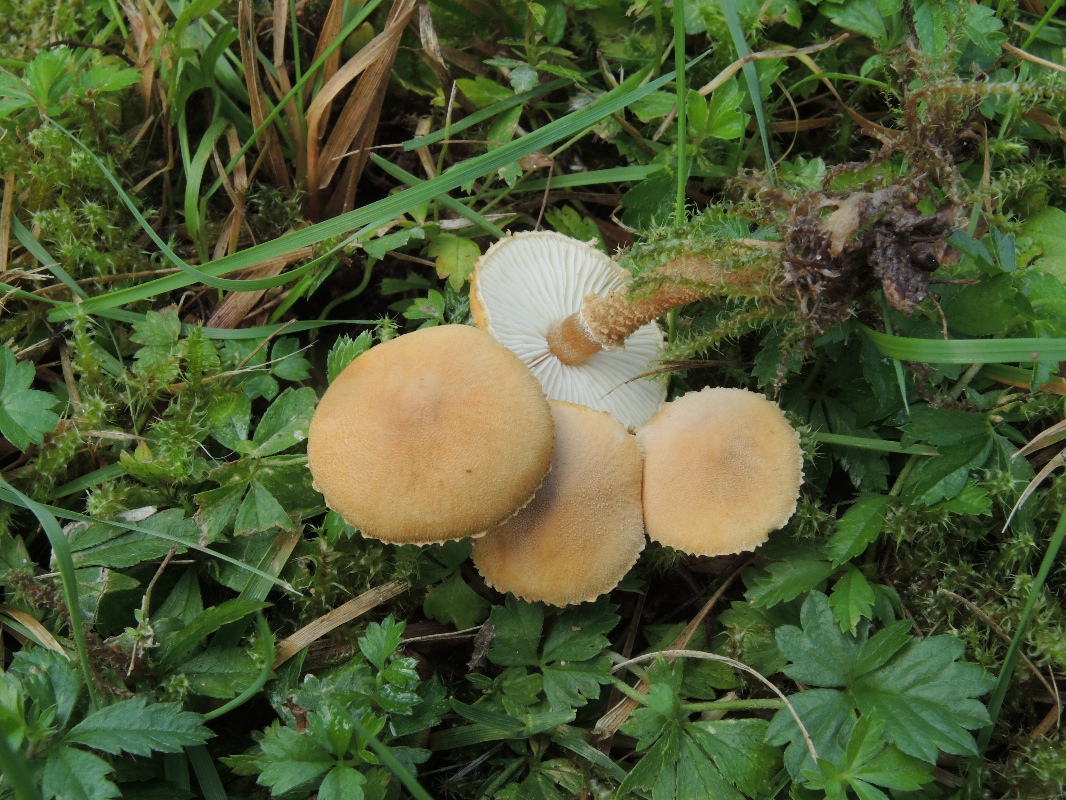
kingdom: Fungi
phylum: Basidiomycota
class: Agaricomycetes
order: Agaricales
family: Tricholomataceae
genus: Cystoderma
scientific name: Cystoderma amianthinum
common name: okkergul grynhat
